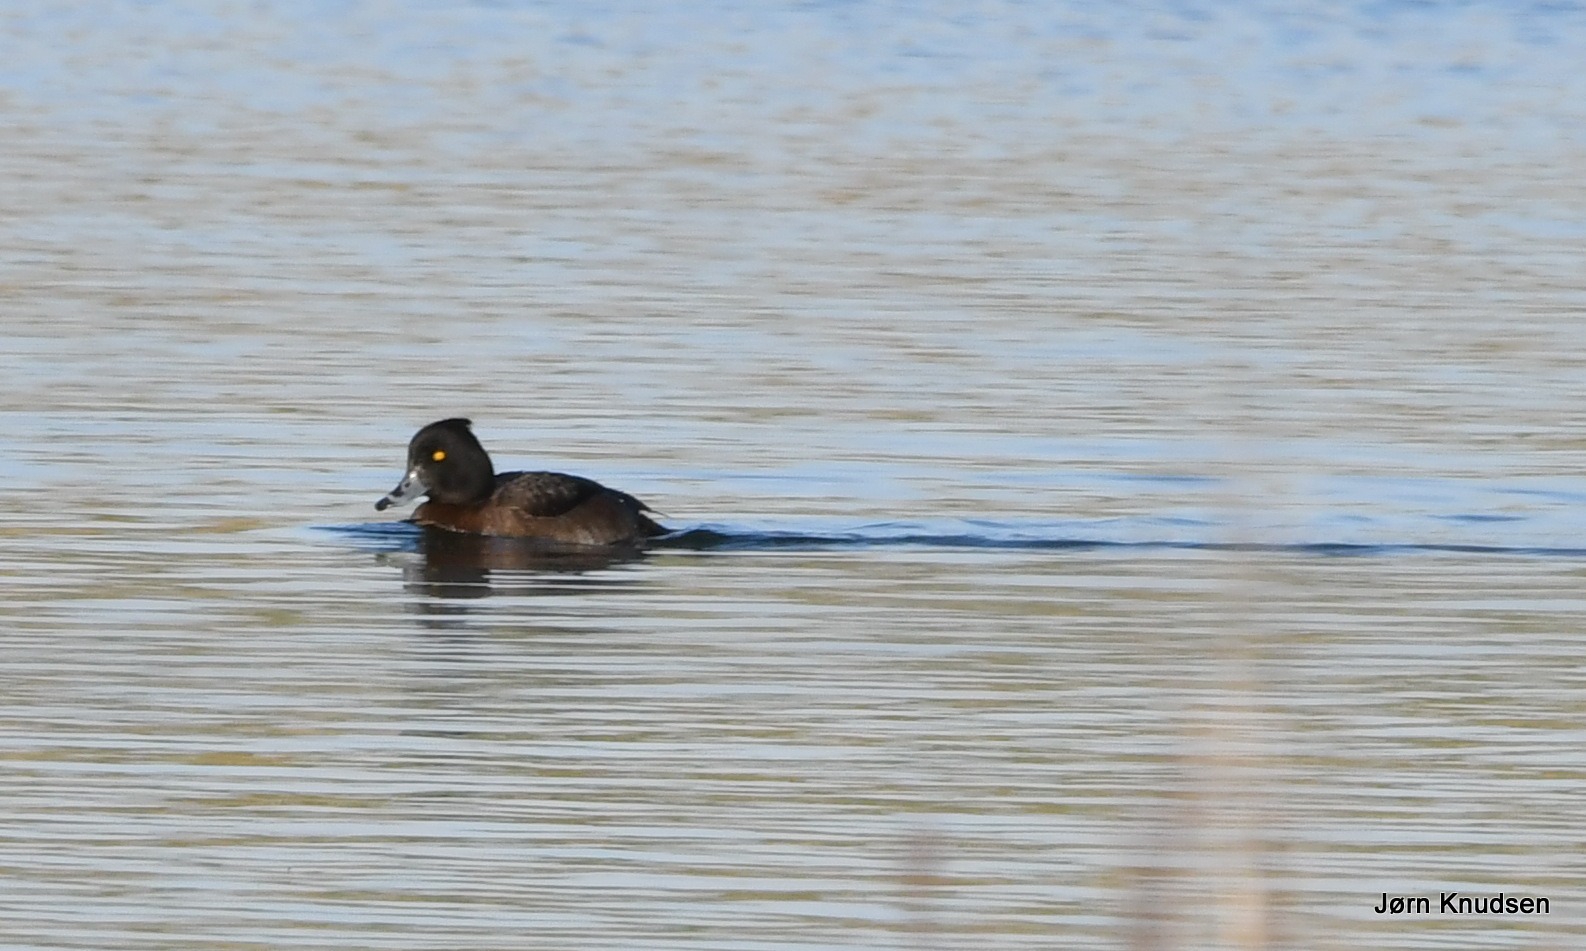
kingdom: Animalia
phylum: Chordata
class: Aves
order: Anseriformes
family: Anatidae
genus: Aythya
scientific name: Aythya fuligula
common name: Troldand
